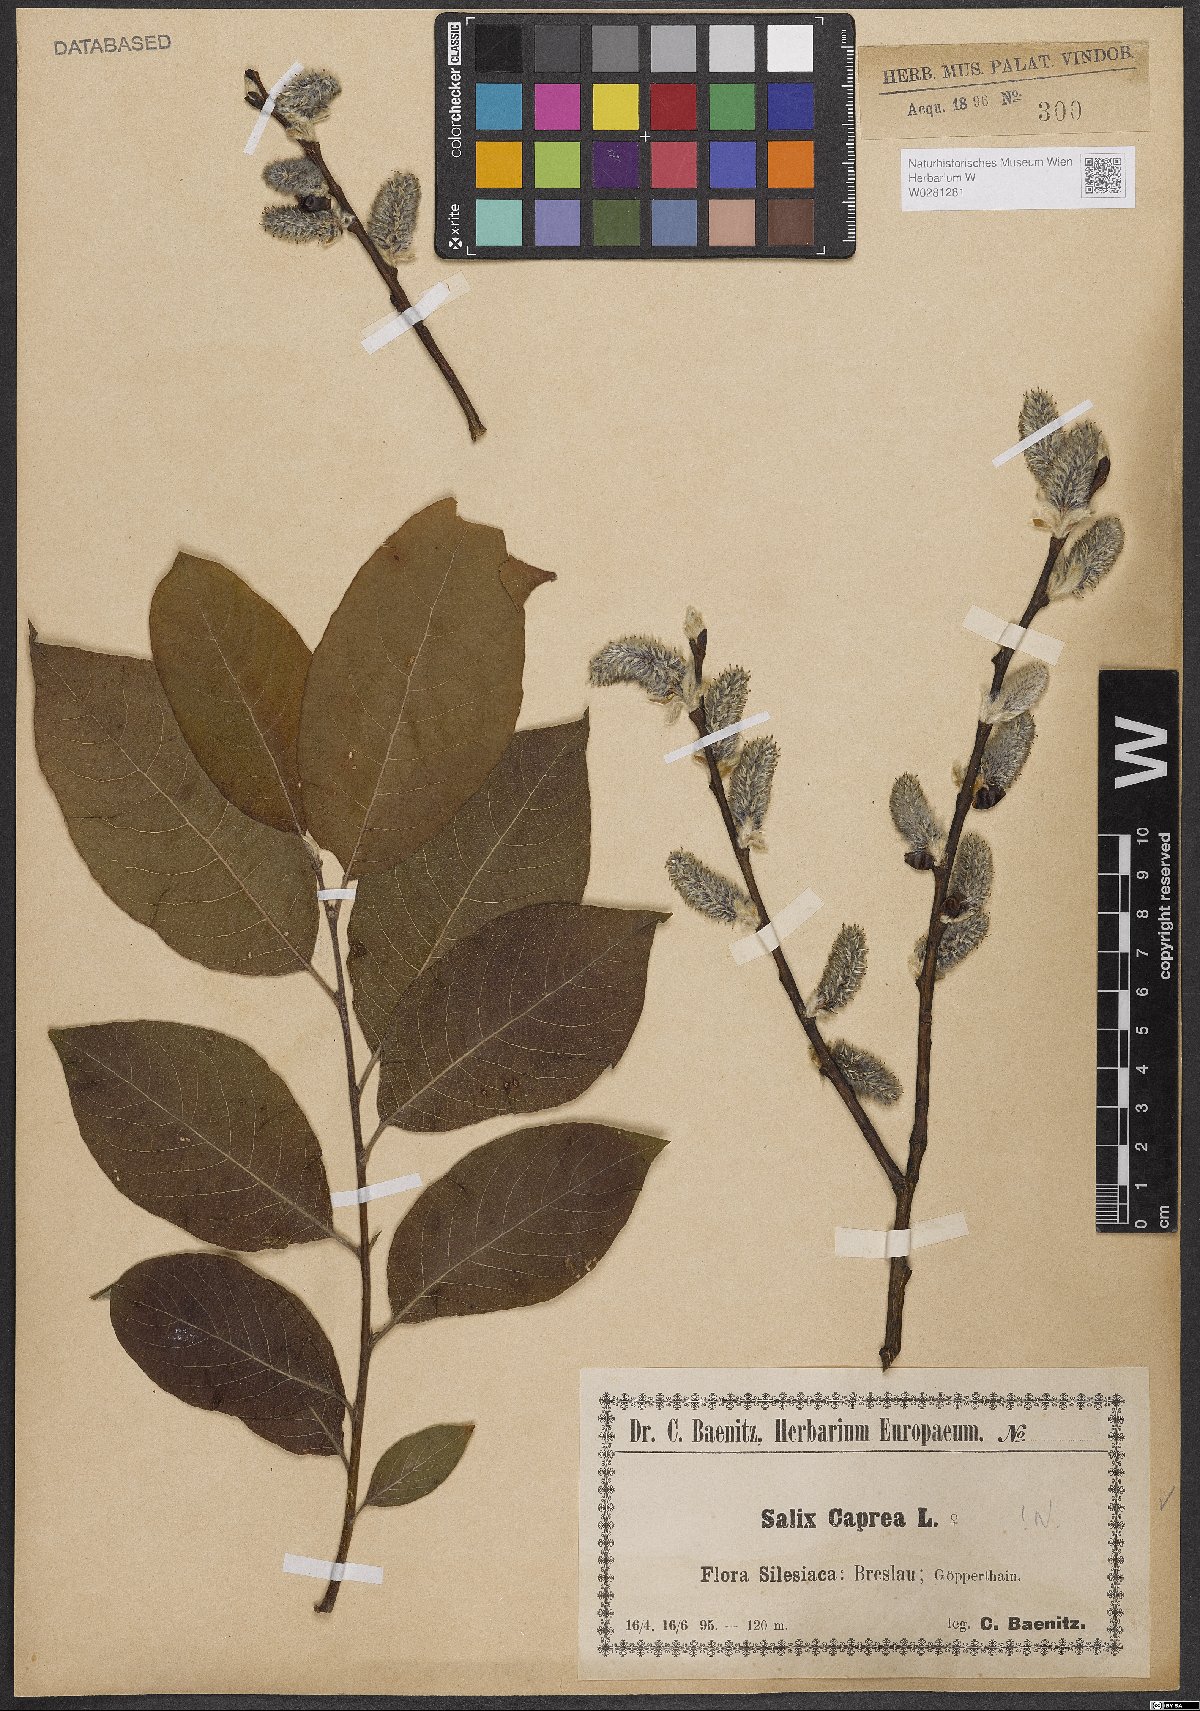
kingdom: Plantae
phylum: Tracheophyta
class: Magnoliopsida
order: Malpighiales
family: Salicaceae
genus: Salix
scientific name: Salix caprea
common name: Goat willow
